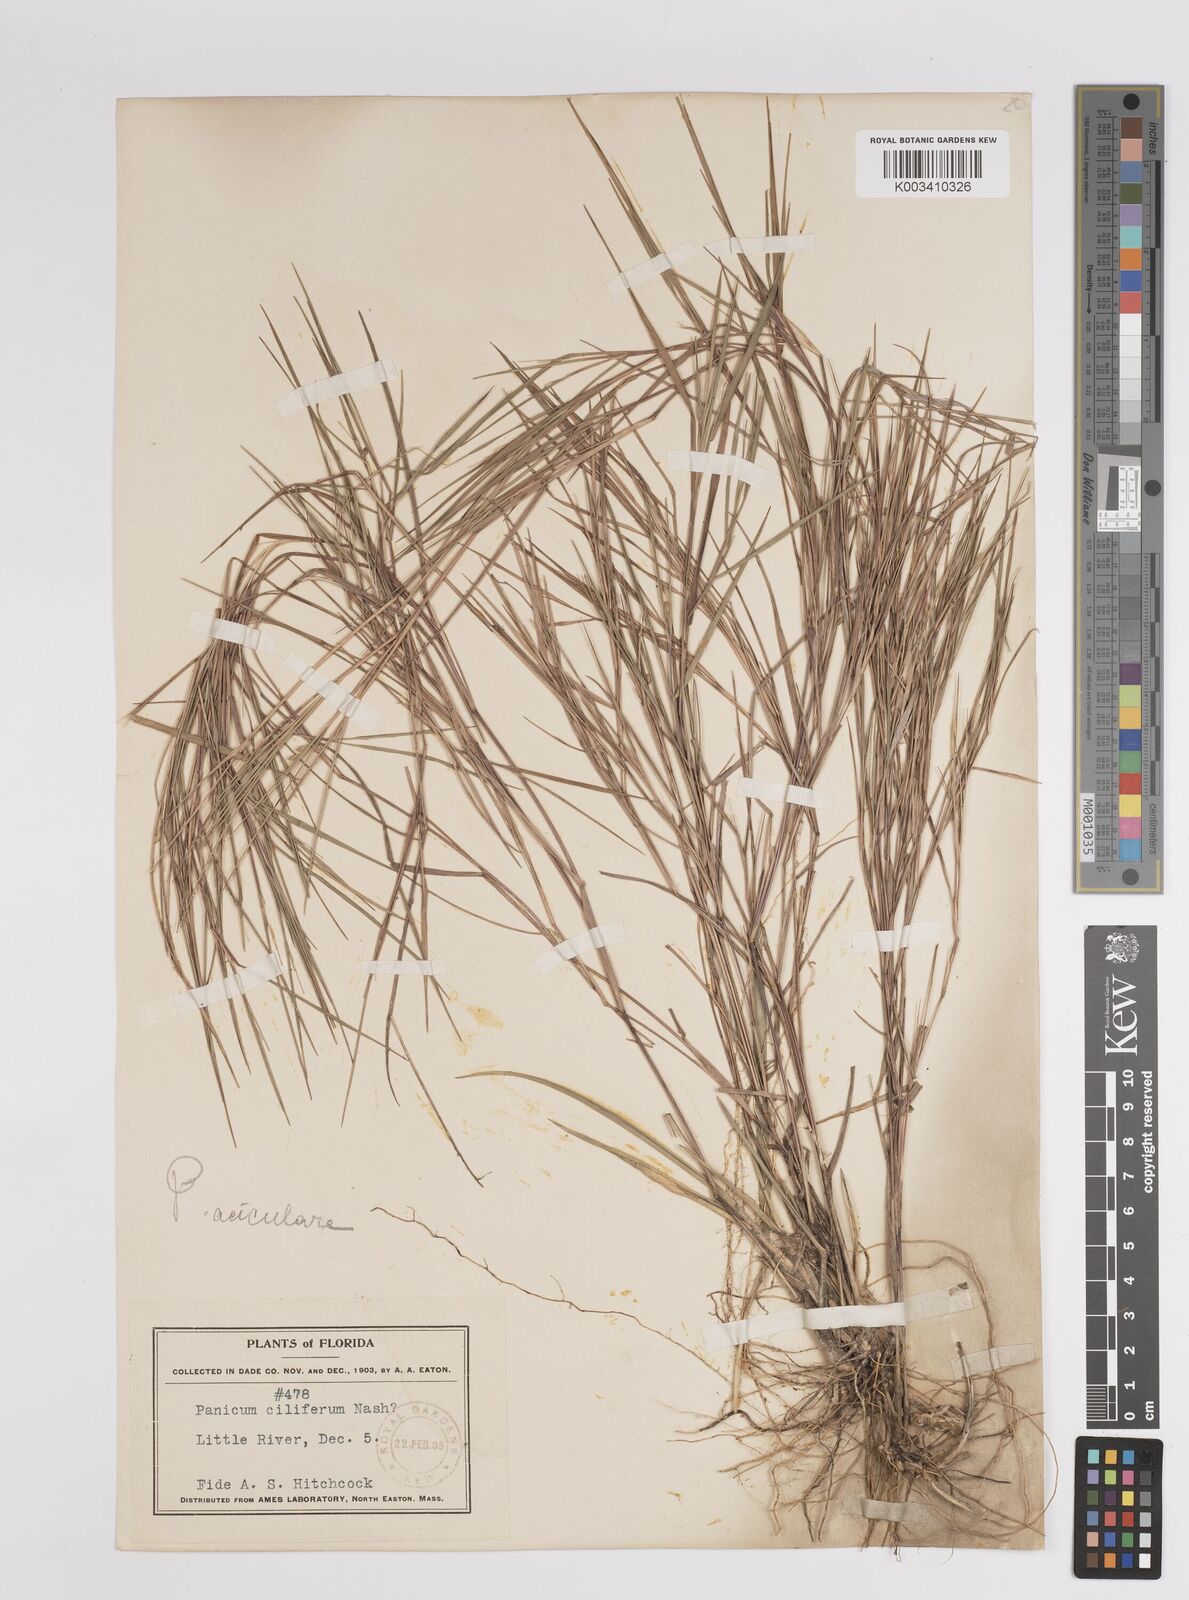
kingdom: Plantae
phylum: Tracheophyta
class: Liliopsida
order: Poales
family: Poaceae
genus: Dichanthelium
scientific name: Dichanthelium aciculare
